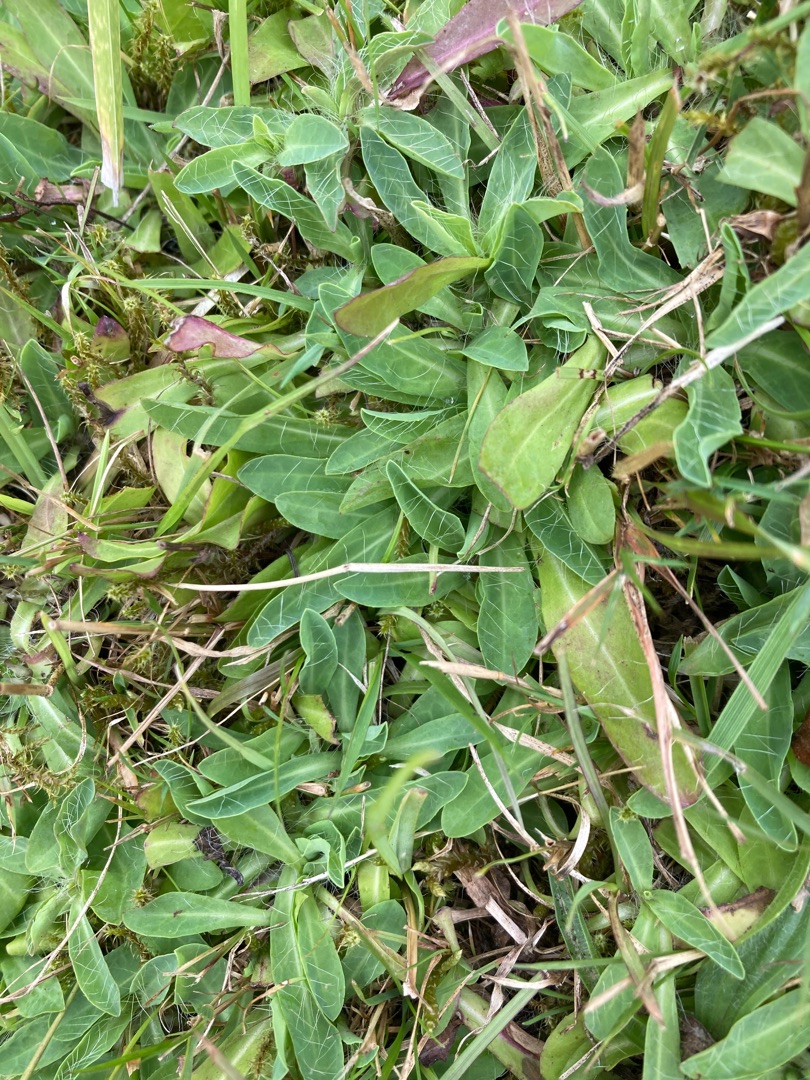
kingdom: Plantae
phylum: Tracheophyta
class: Magnoliopsida
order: Asterales
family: Asteraceae
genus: Pilosella
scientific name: Pilosella lactucella
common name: Lancetbladet høgeurt
